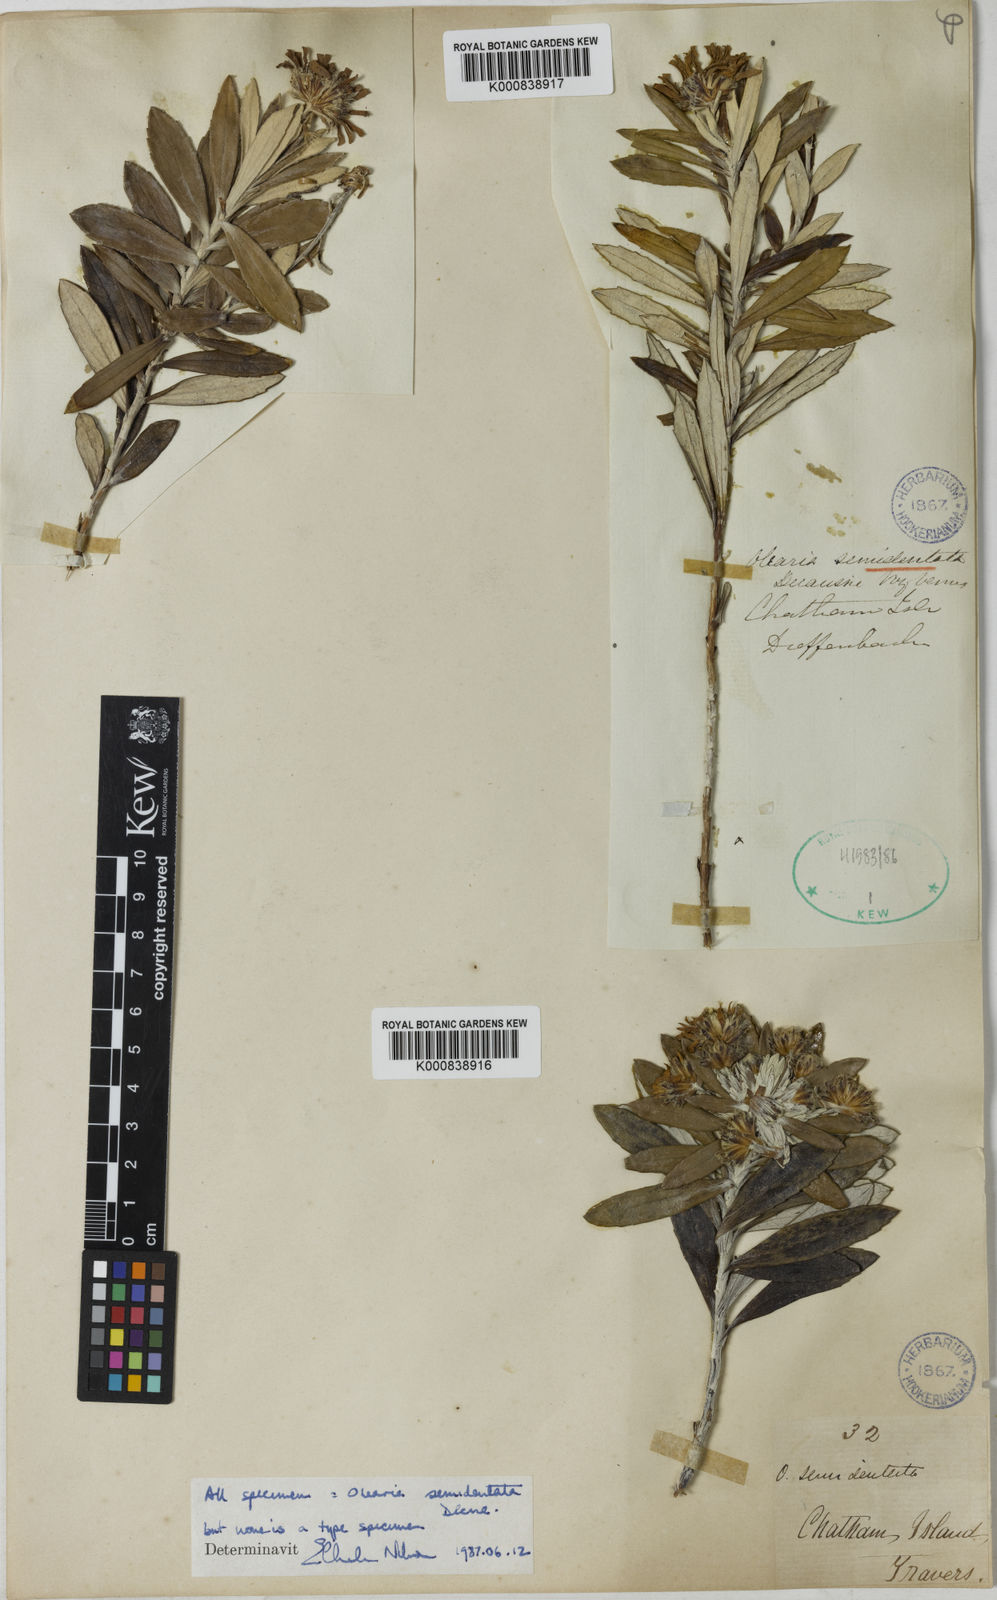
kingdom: Plantae
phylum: Tracheophyta
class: Magnoliopsida
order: Asterales
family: Asteraceae
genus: Olearia
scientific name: Olearia
